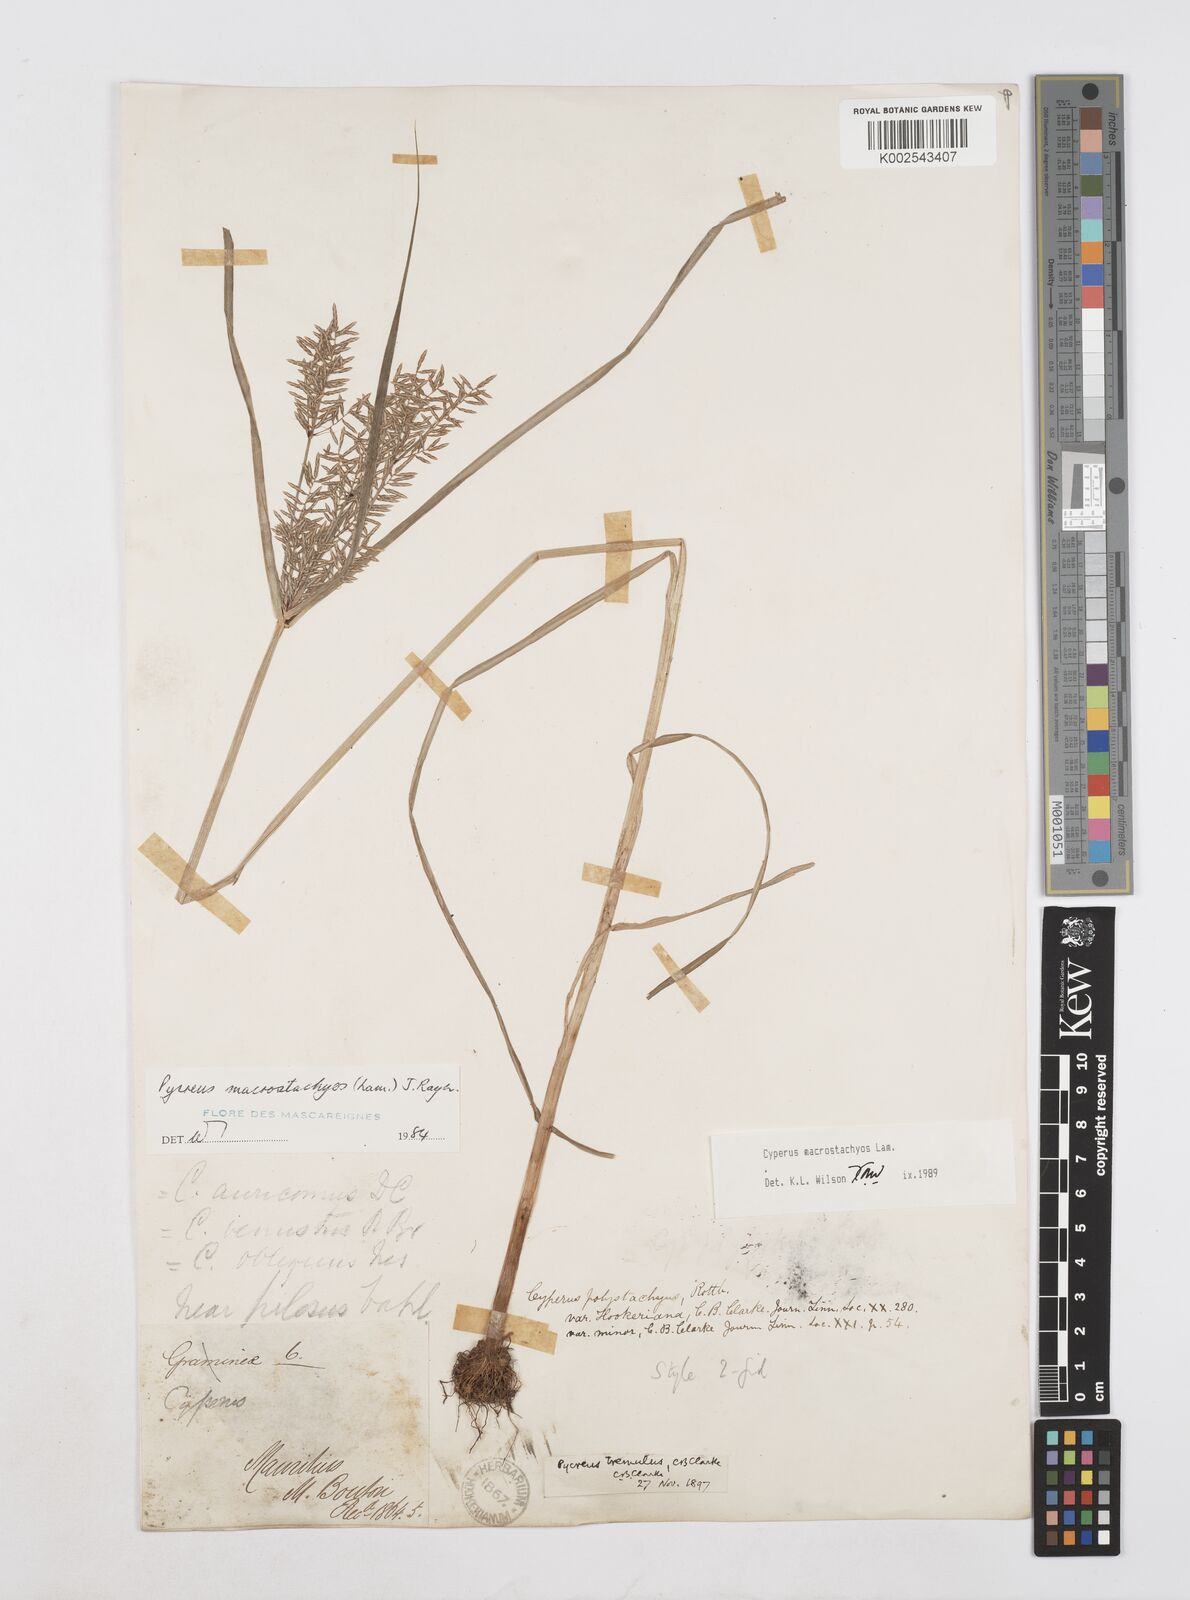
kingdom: Plantae
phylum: Tracheophyta
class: Liliopsida
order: Poales
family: Cyperaceae
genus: Cyperus
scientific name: Cyperus pelophilus
